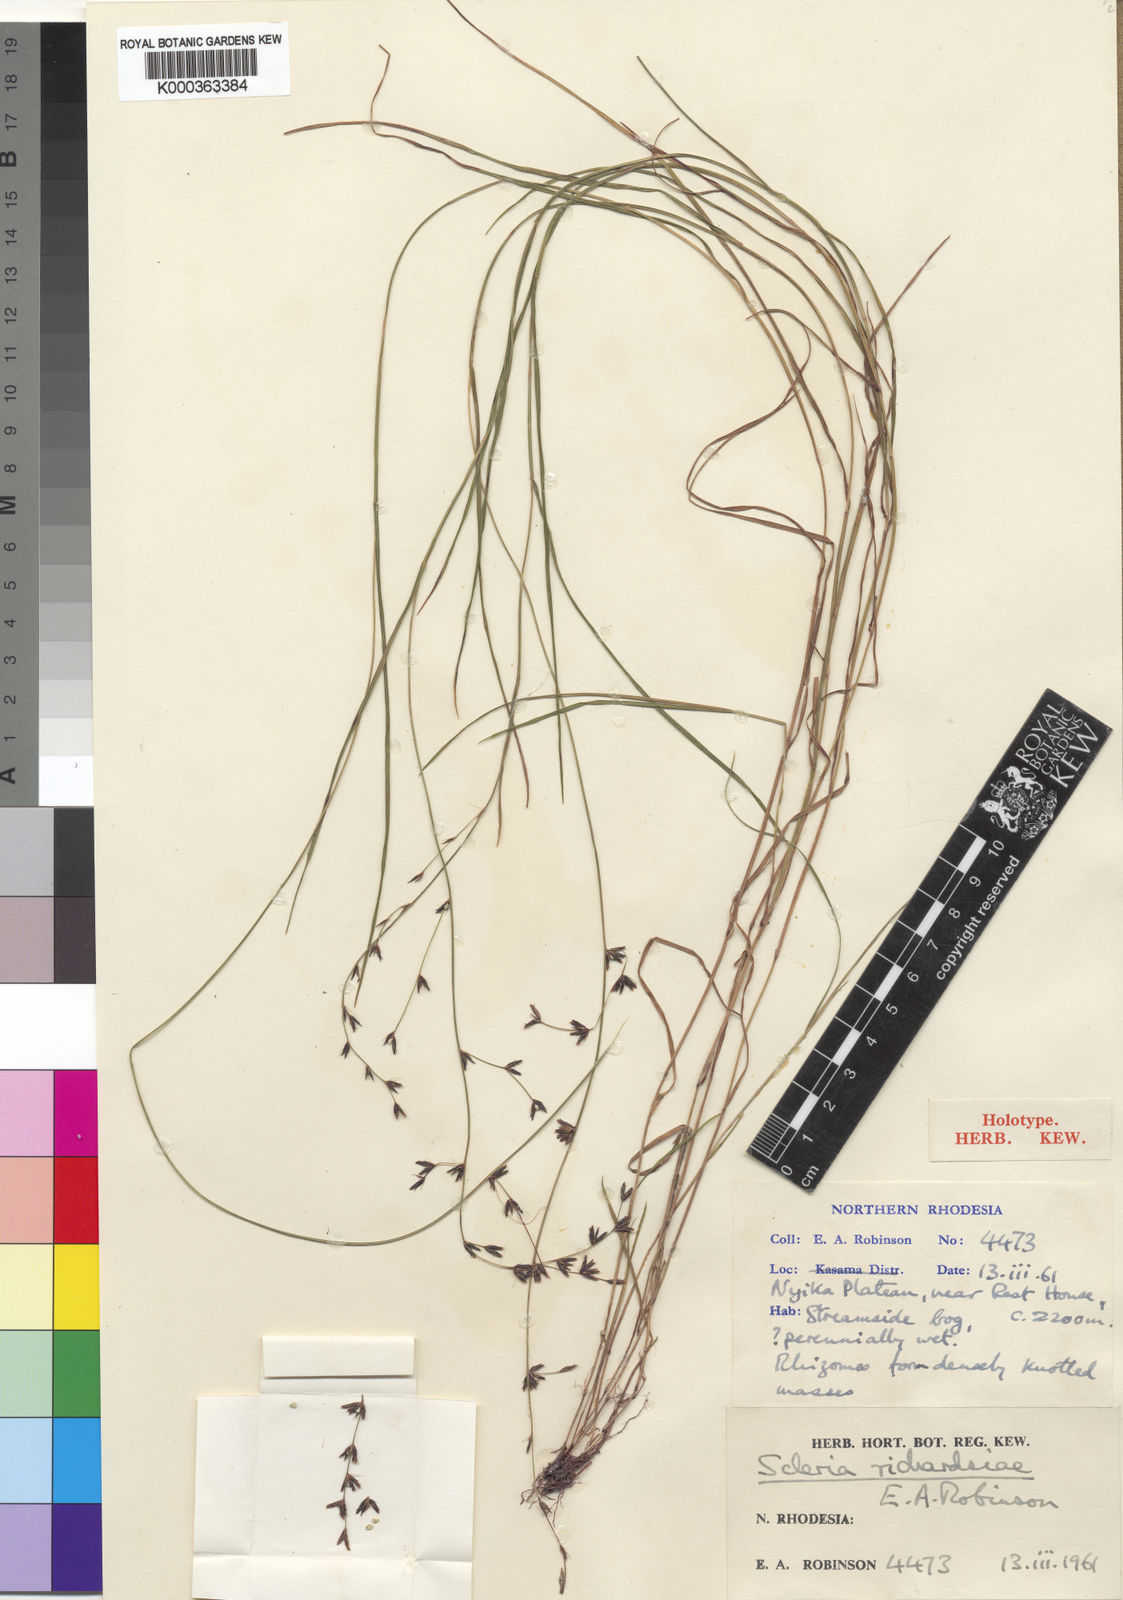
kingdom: Plantae
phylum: Tracheophyta
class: Liliopsida
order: Poales
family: Cyperaceae
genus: Scleria
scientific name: Scleria richardsiae
